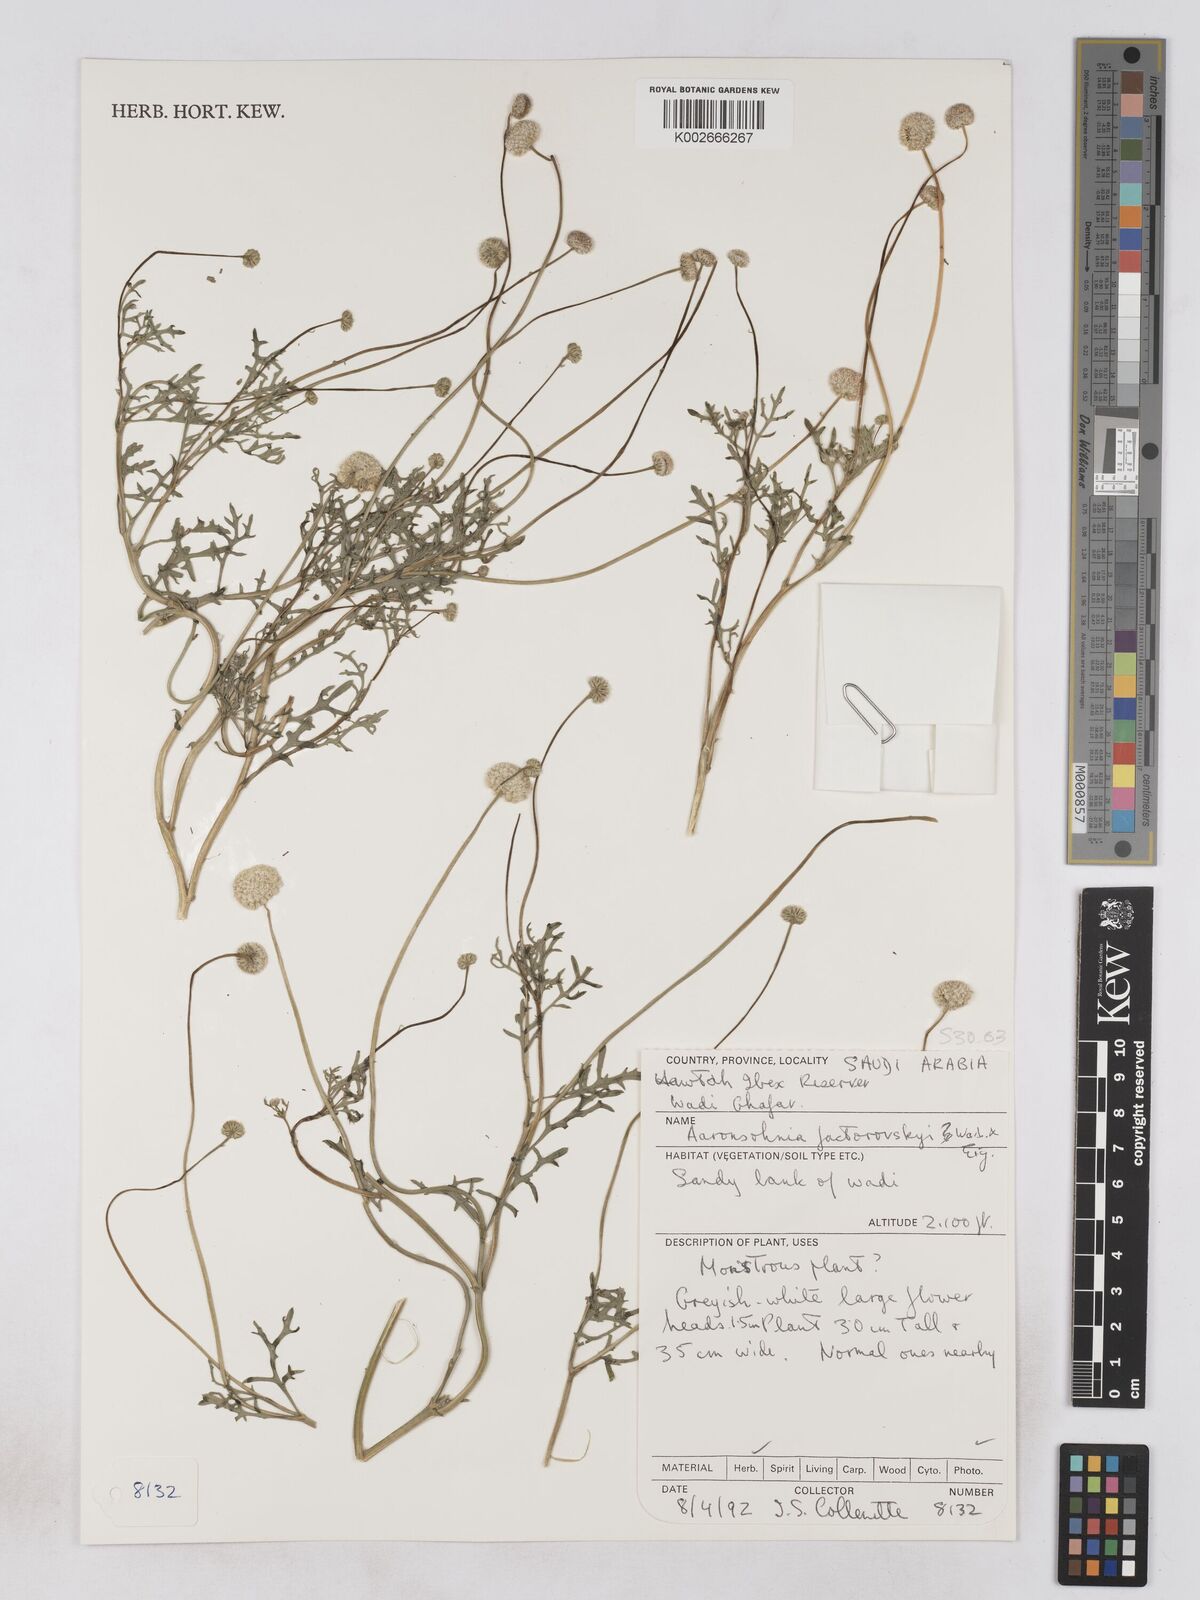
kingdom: Plantae
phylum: Tracheophyta
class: Magnoliopsida
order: Asterales
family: Asteraceae
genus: Otoglyphis
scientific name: Otoglyphis factorovskyi
